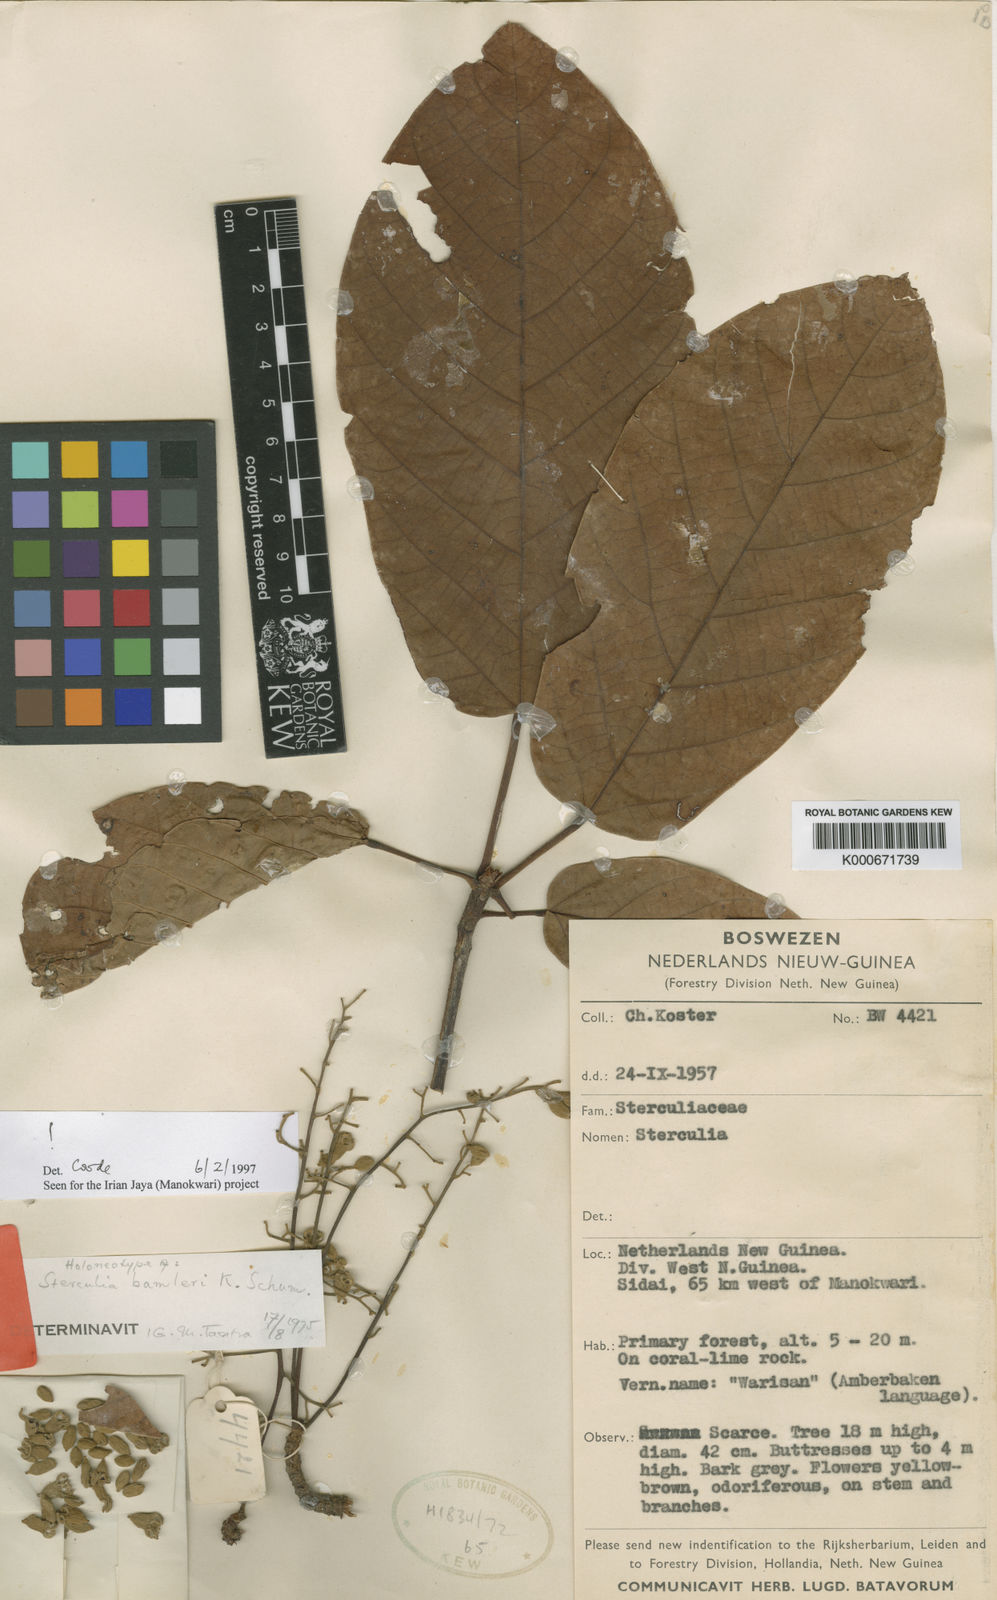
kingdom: Plantae
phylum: Tracheophyta
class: Magnoliopsida
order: Malvales
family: Malvaceae
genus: Sterculia
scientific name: Sterculia bammleri
